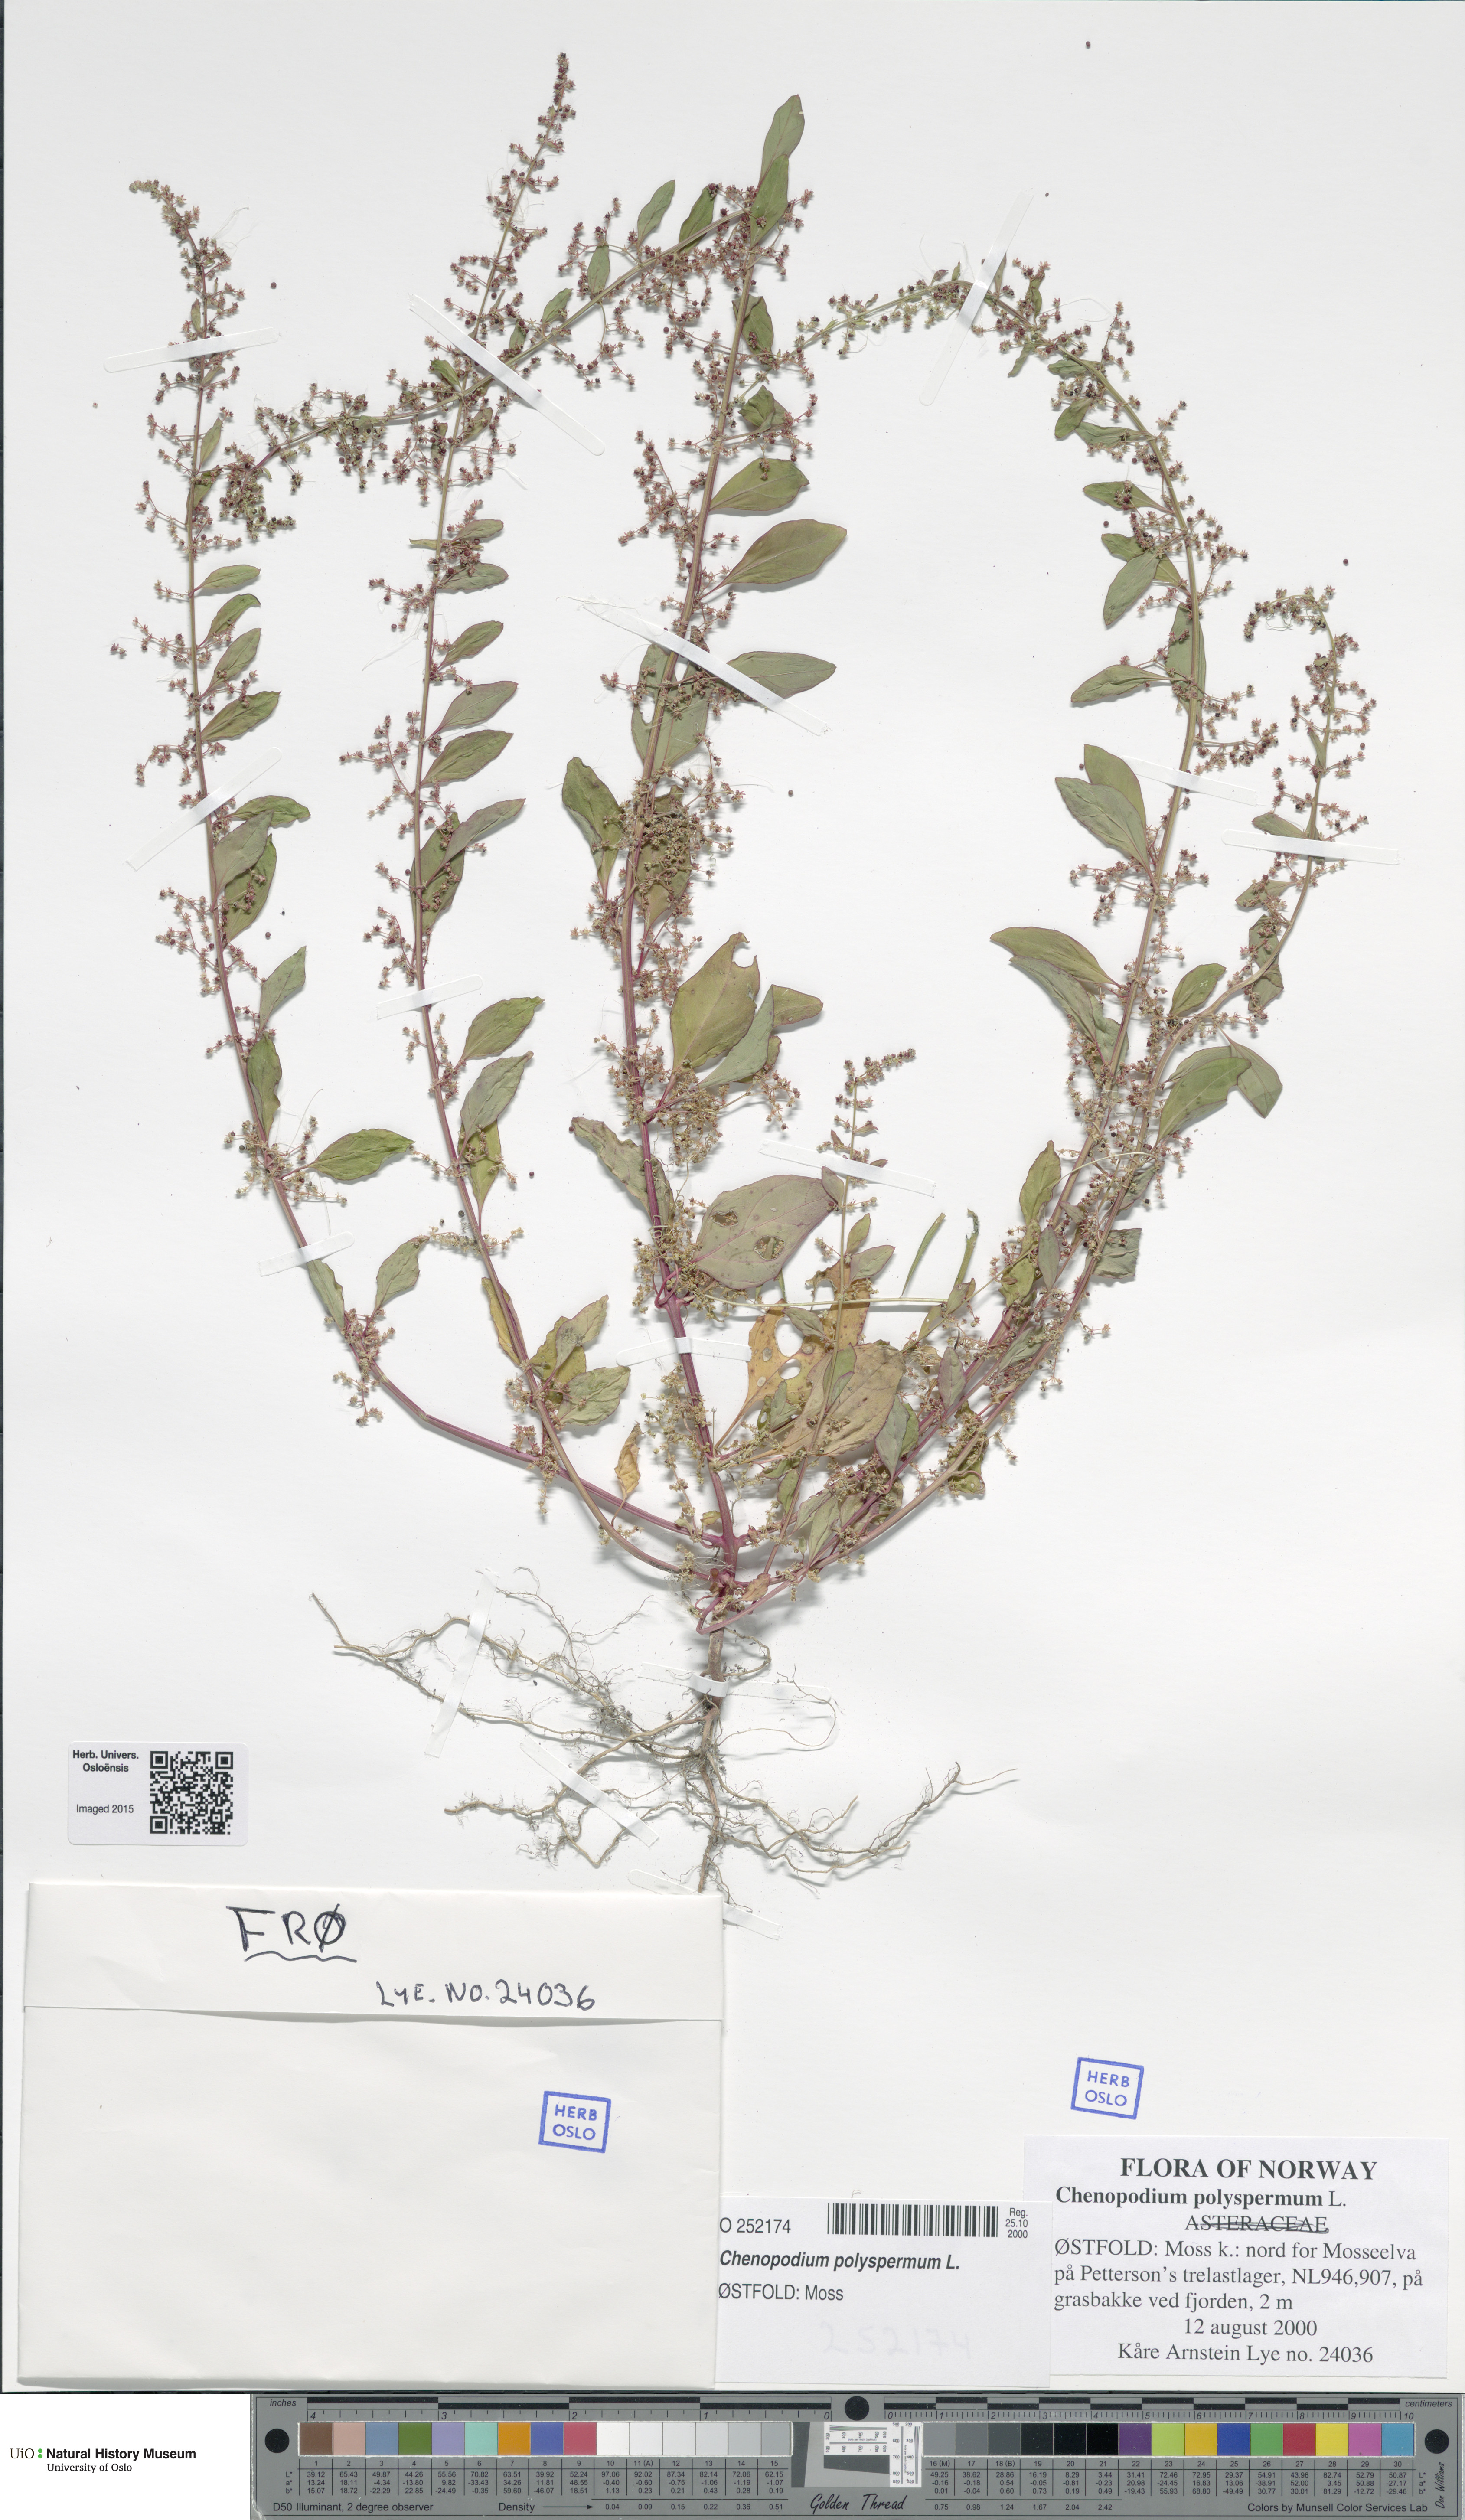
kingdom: Plantae
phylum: Tracheophyta
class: Magnoliopsida
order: Caryophyllales
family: Amaranthaceae
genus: Lipandra
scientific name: Lipandra polysperma
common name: Many-seed goosefoot
